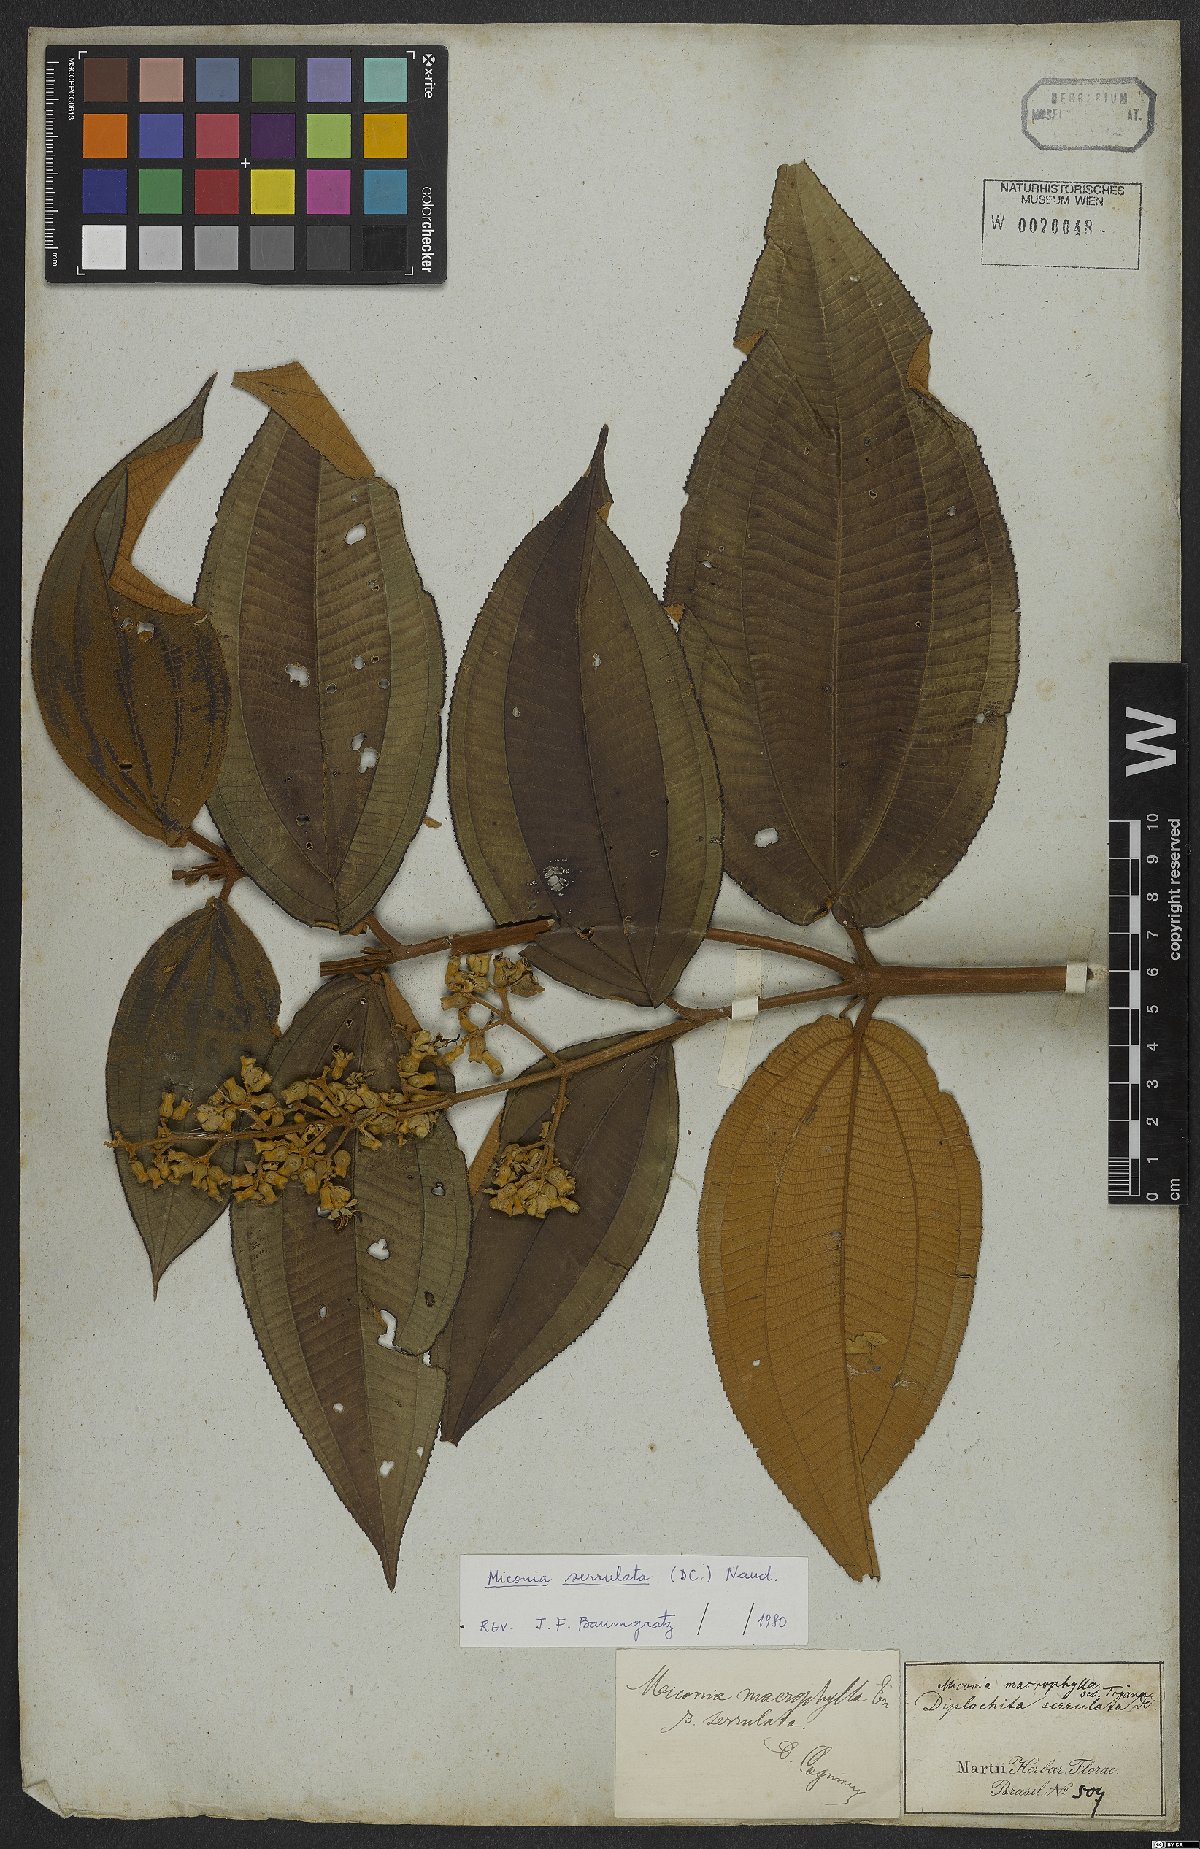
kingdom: Plantae
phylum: Tracheophyta
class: Magnoliopsida
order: Myrtales
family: Melastomataceae
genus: Miconia
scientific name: Miconia serrulata
